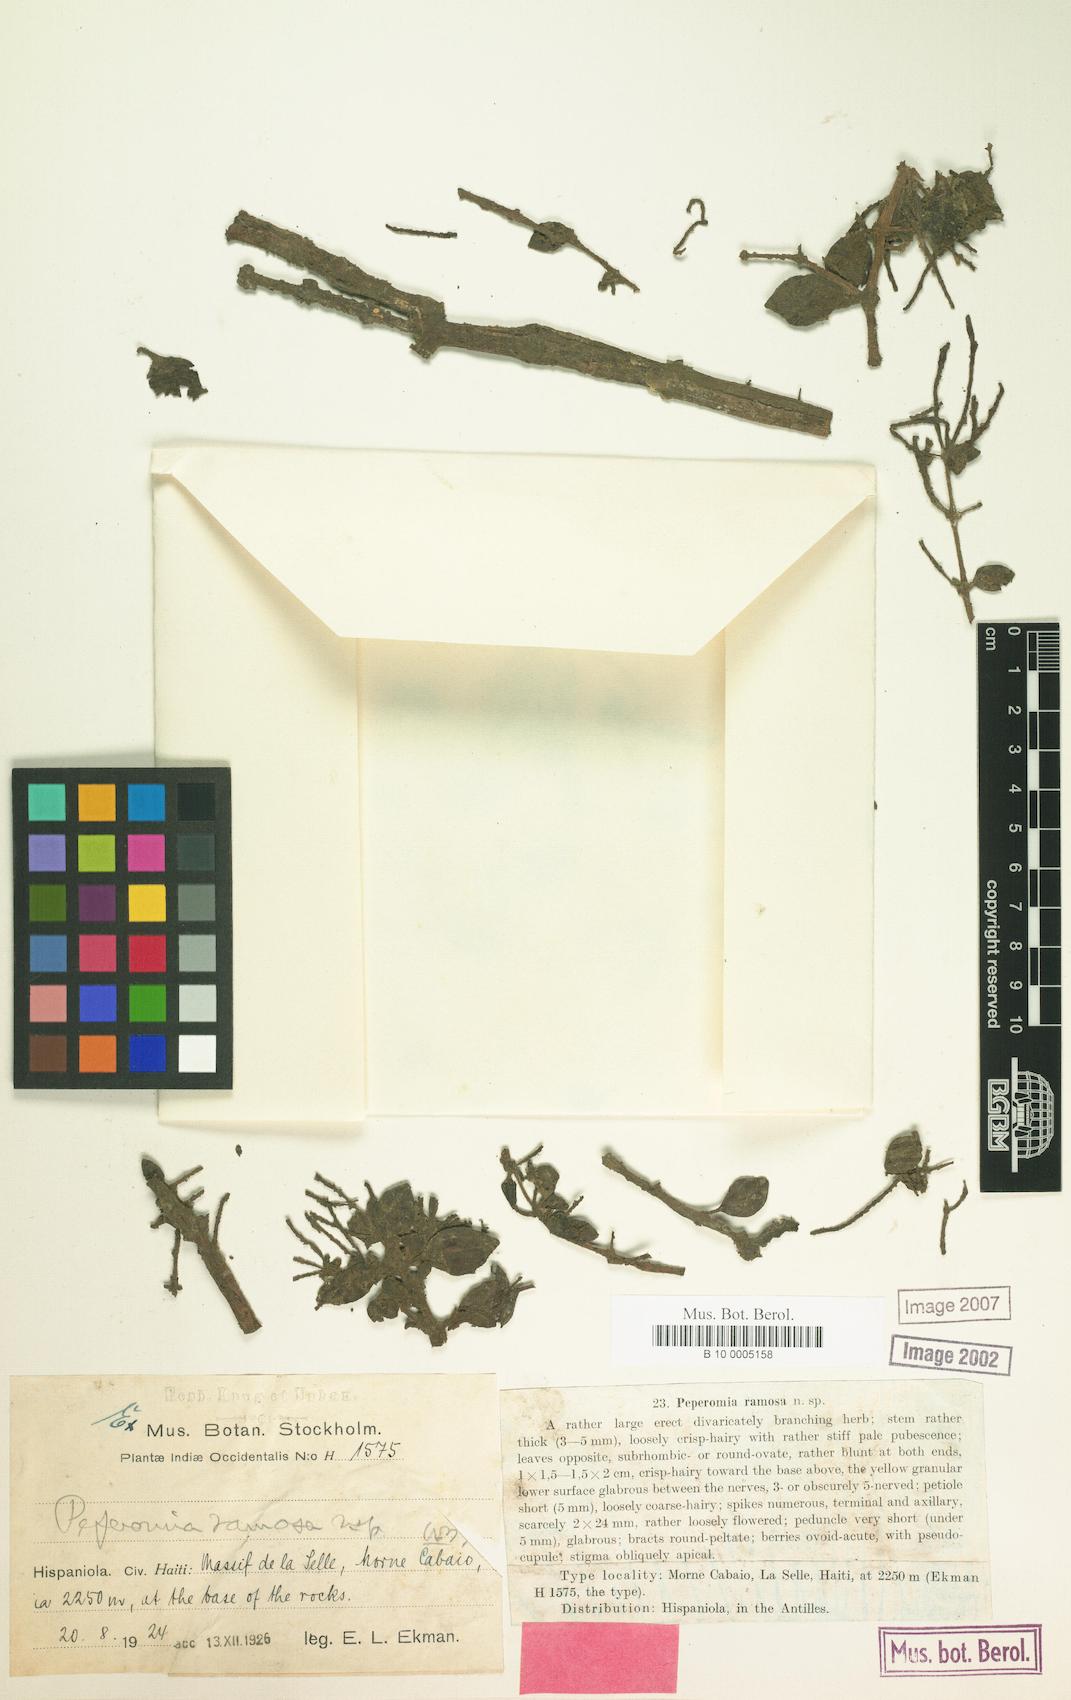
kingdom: Plantae
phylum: Tracheophyta
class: Magnoliopsida
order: Piperales
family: Piperaceae
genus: Peperomia
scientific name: Peperomia humilis
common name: Polynesian peperomia
